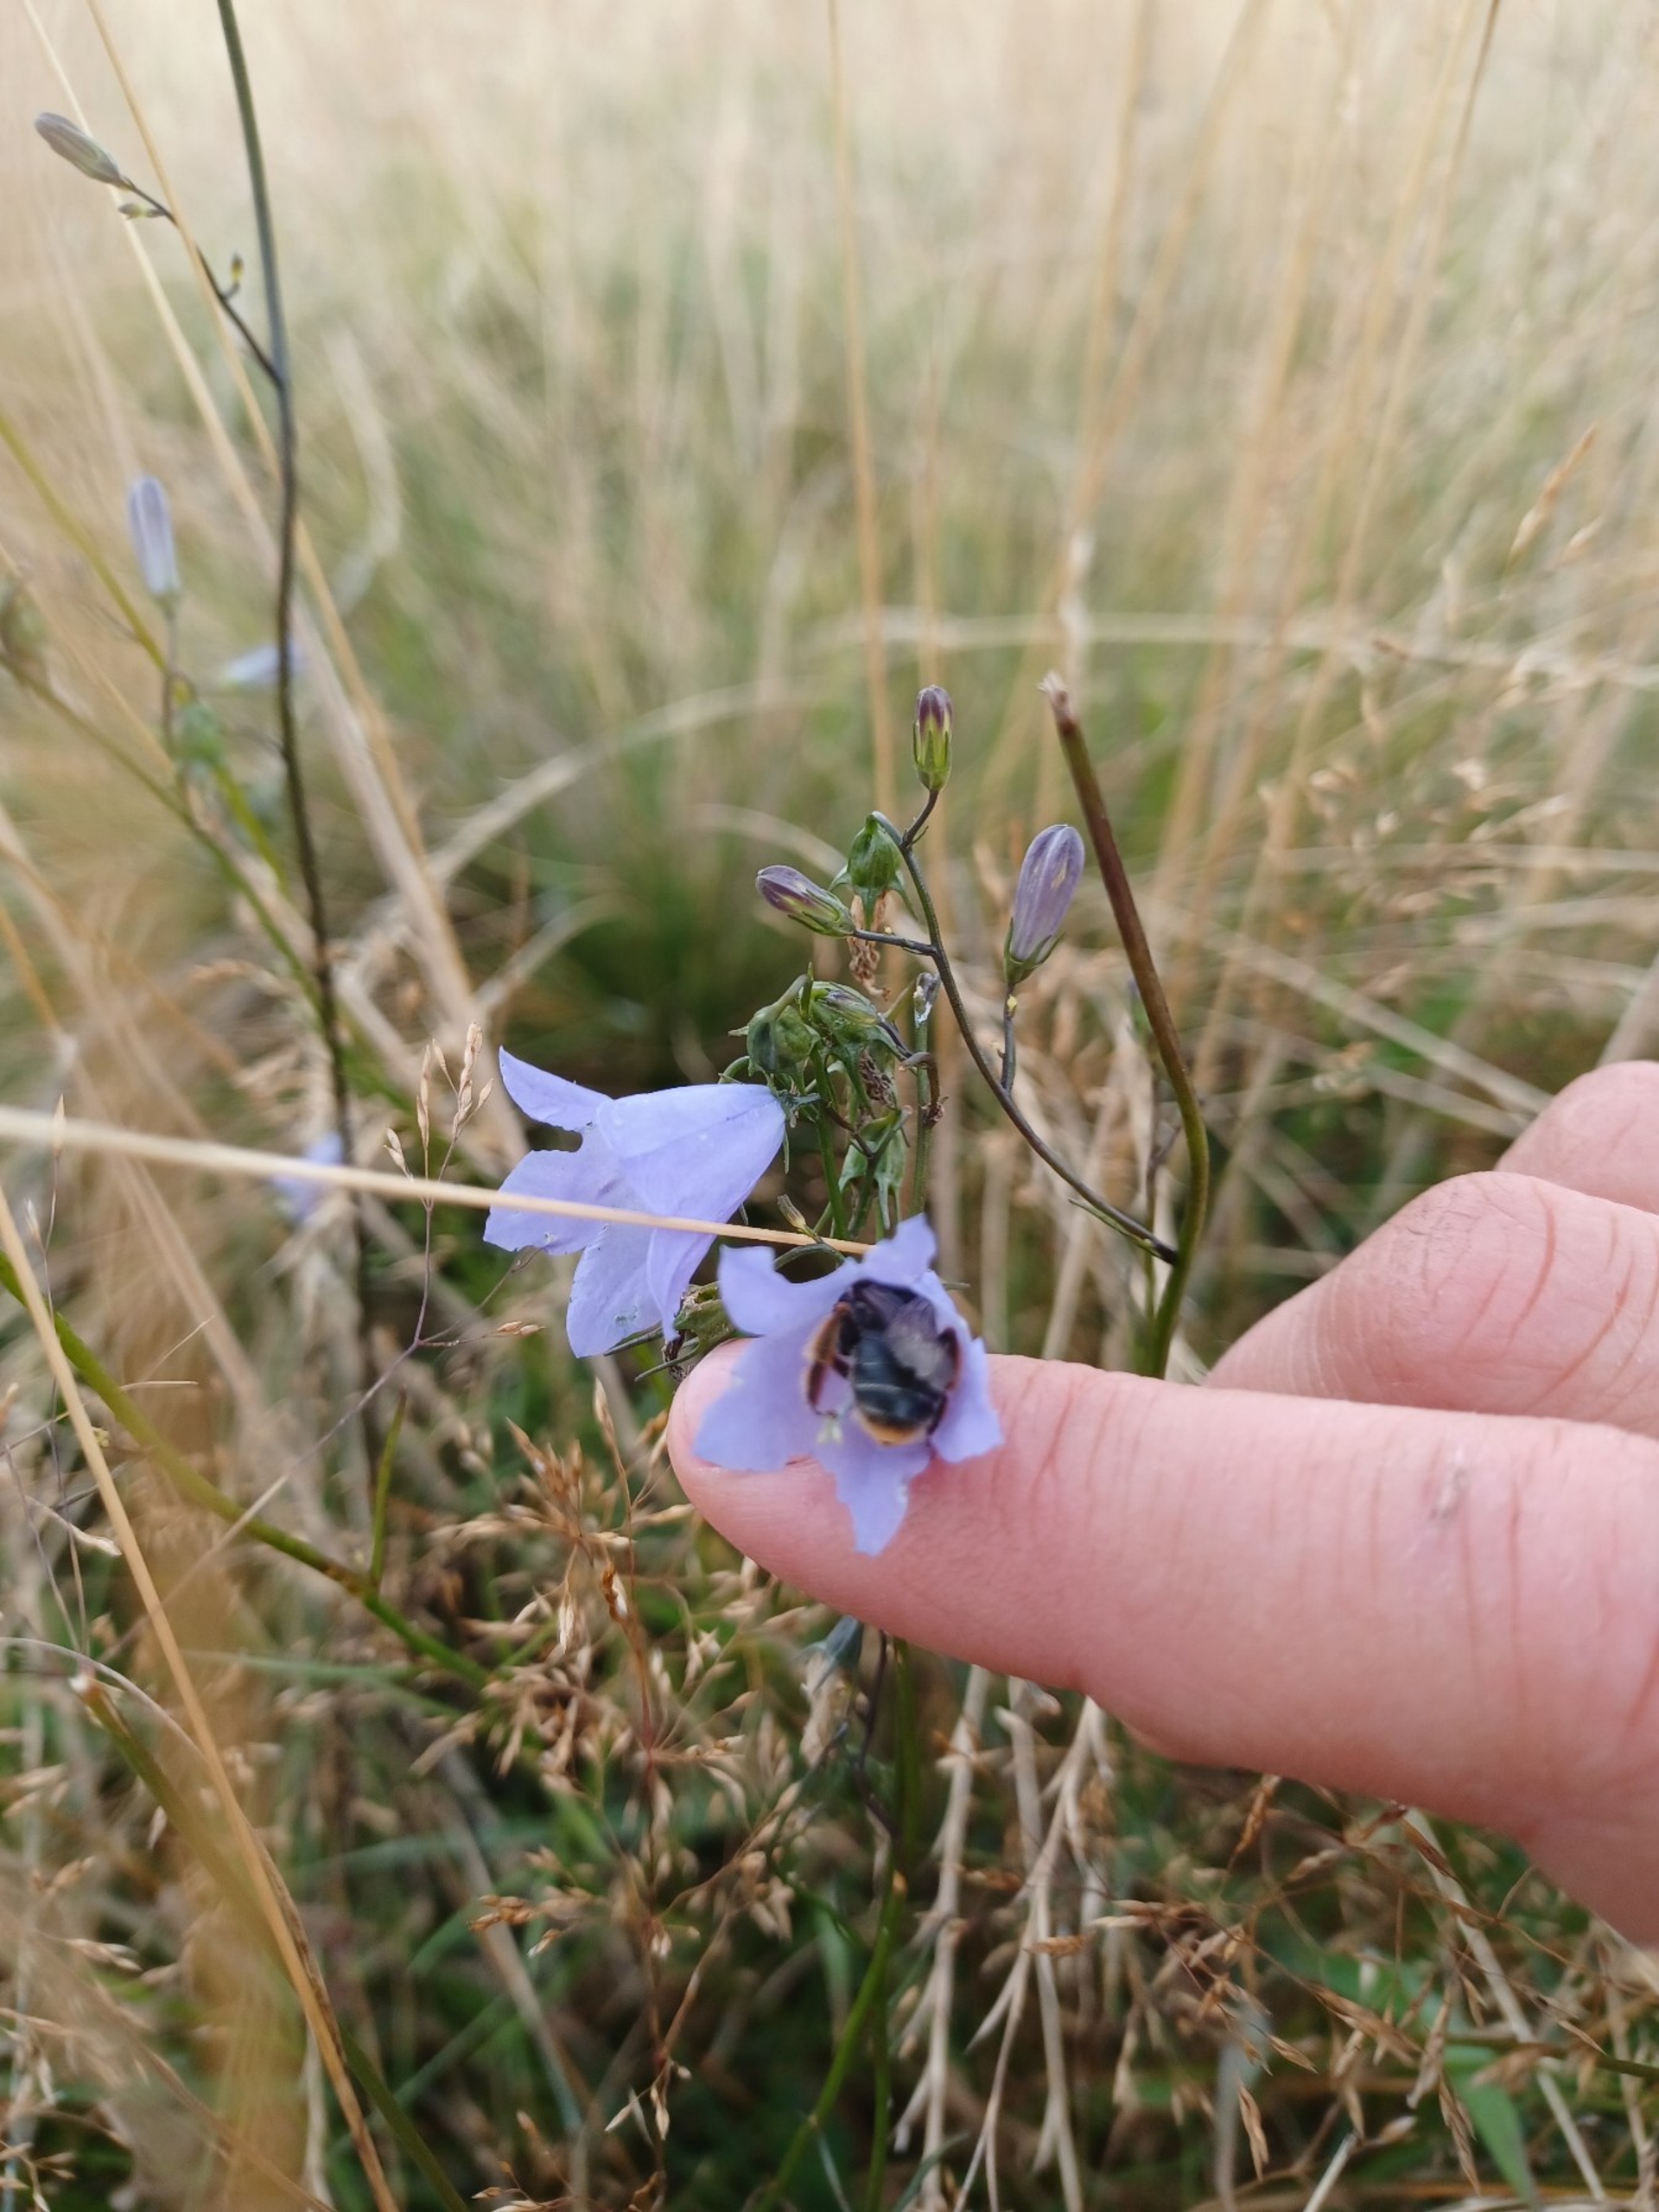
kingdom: Animalia
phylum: Arthropoda
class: Insecta
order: Hymenoptera
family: Melittidae
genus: Melitta
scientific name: Melitta haemorrhoidalis
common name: Rødhalet høstbi
